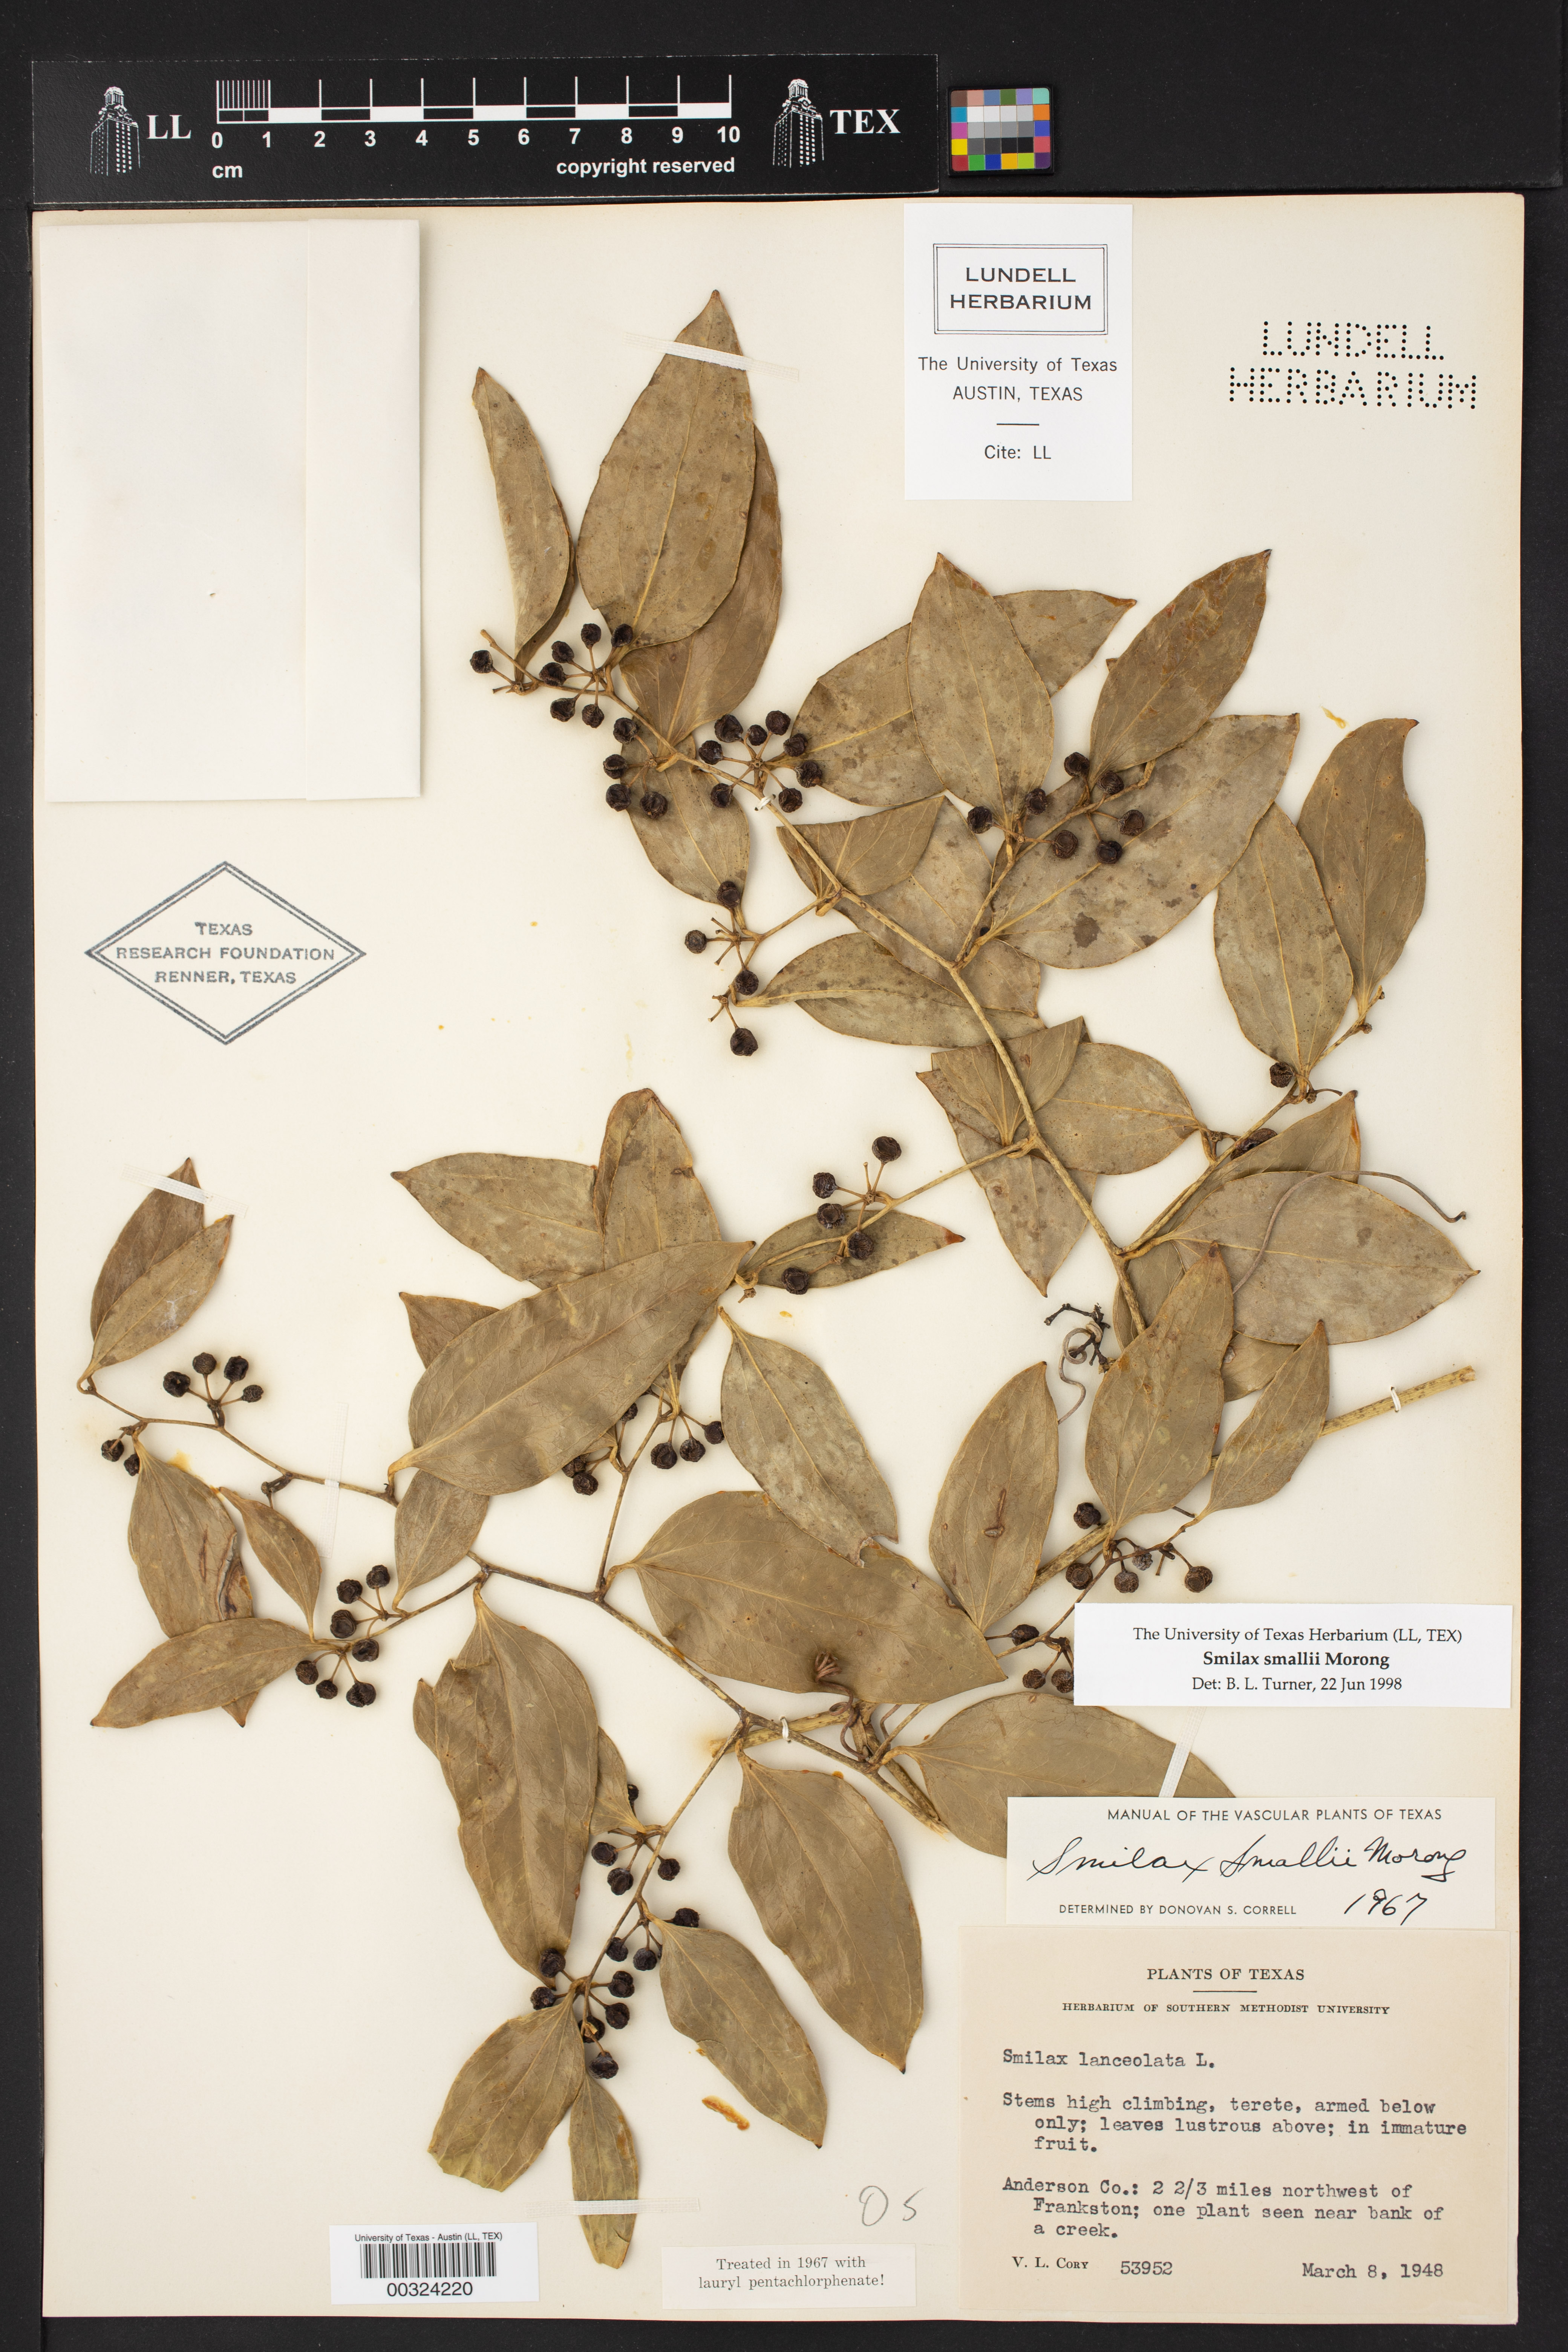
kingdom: Plantae
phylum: Tracheophyta
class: Liliopsida
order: Liliales
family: Smilacaceae
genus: Smilax
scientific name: Smilax maritima
